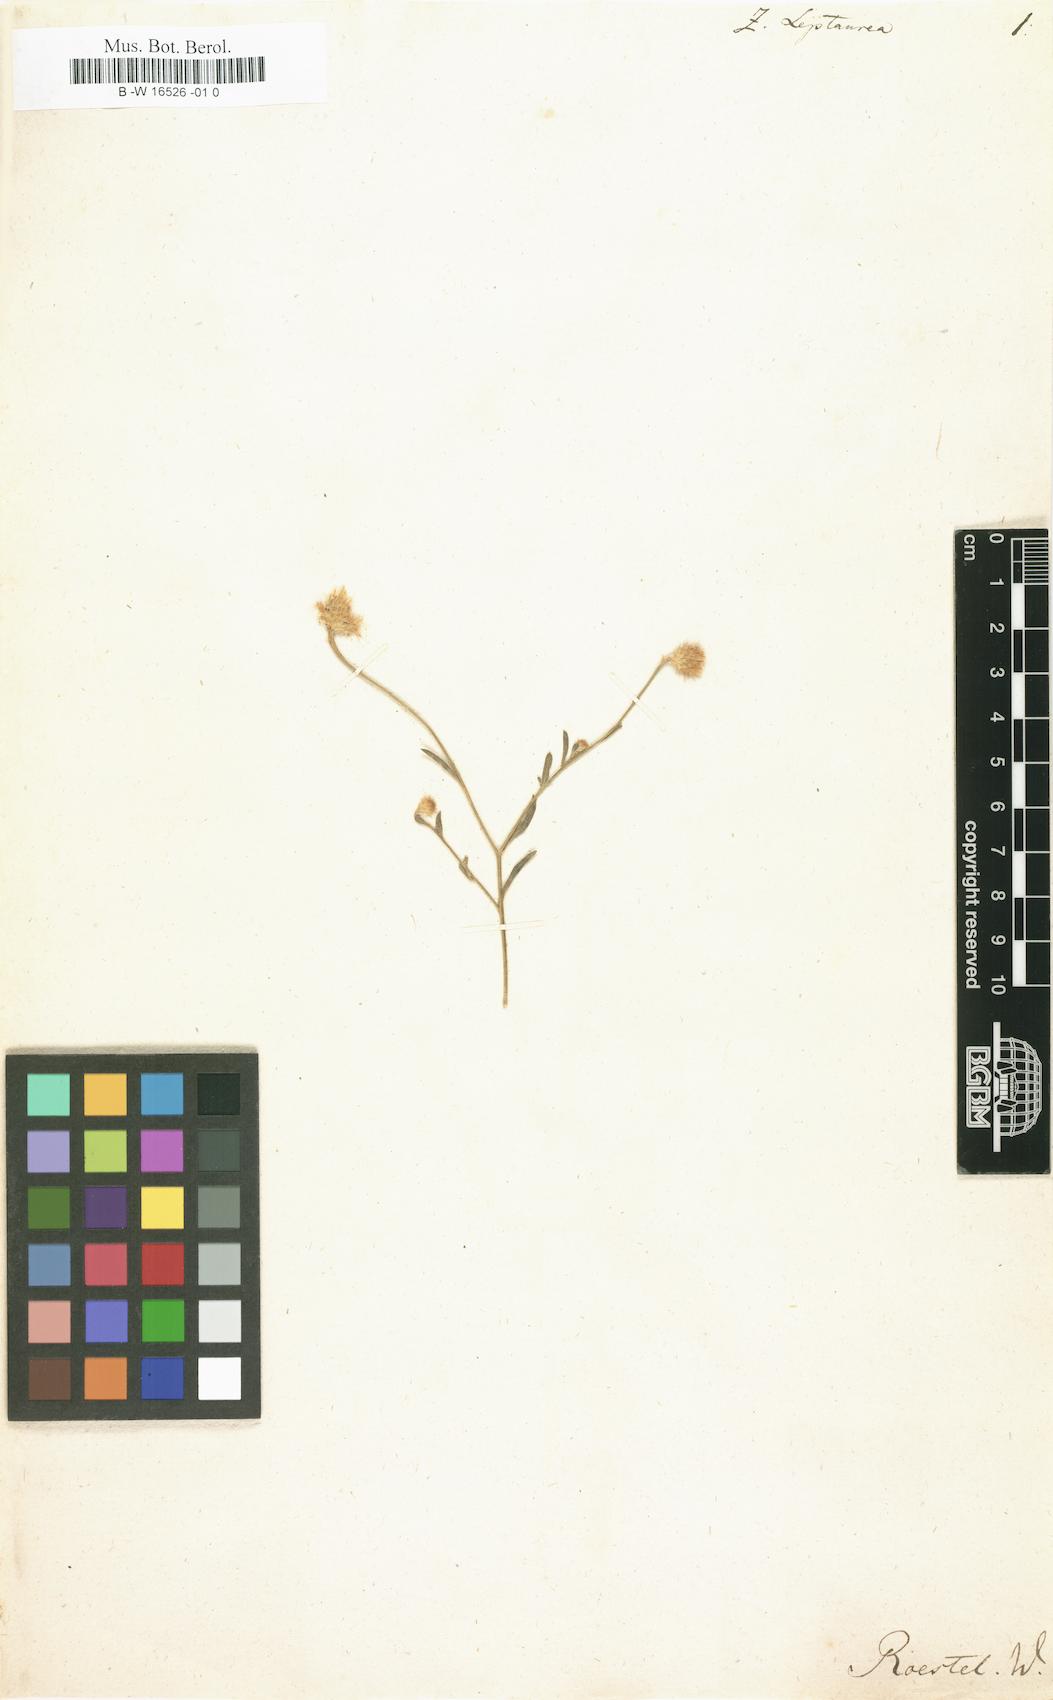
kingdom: Plantae
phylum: Tracheophyta
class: Magnoliopsida
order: Asterales
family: Asteraceae
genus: Zoegea
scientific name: Zoegea leptaurea
